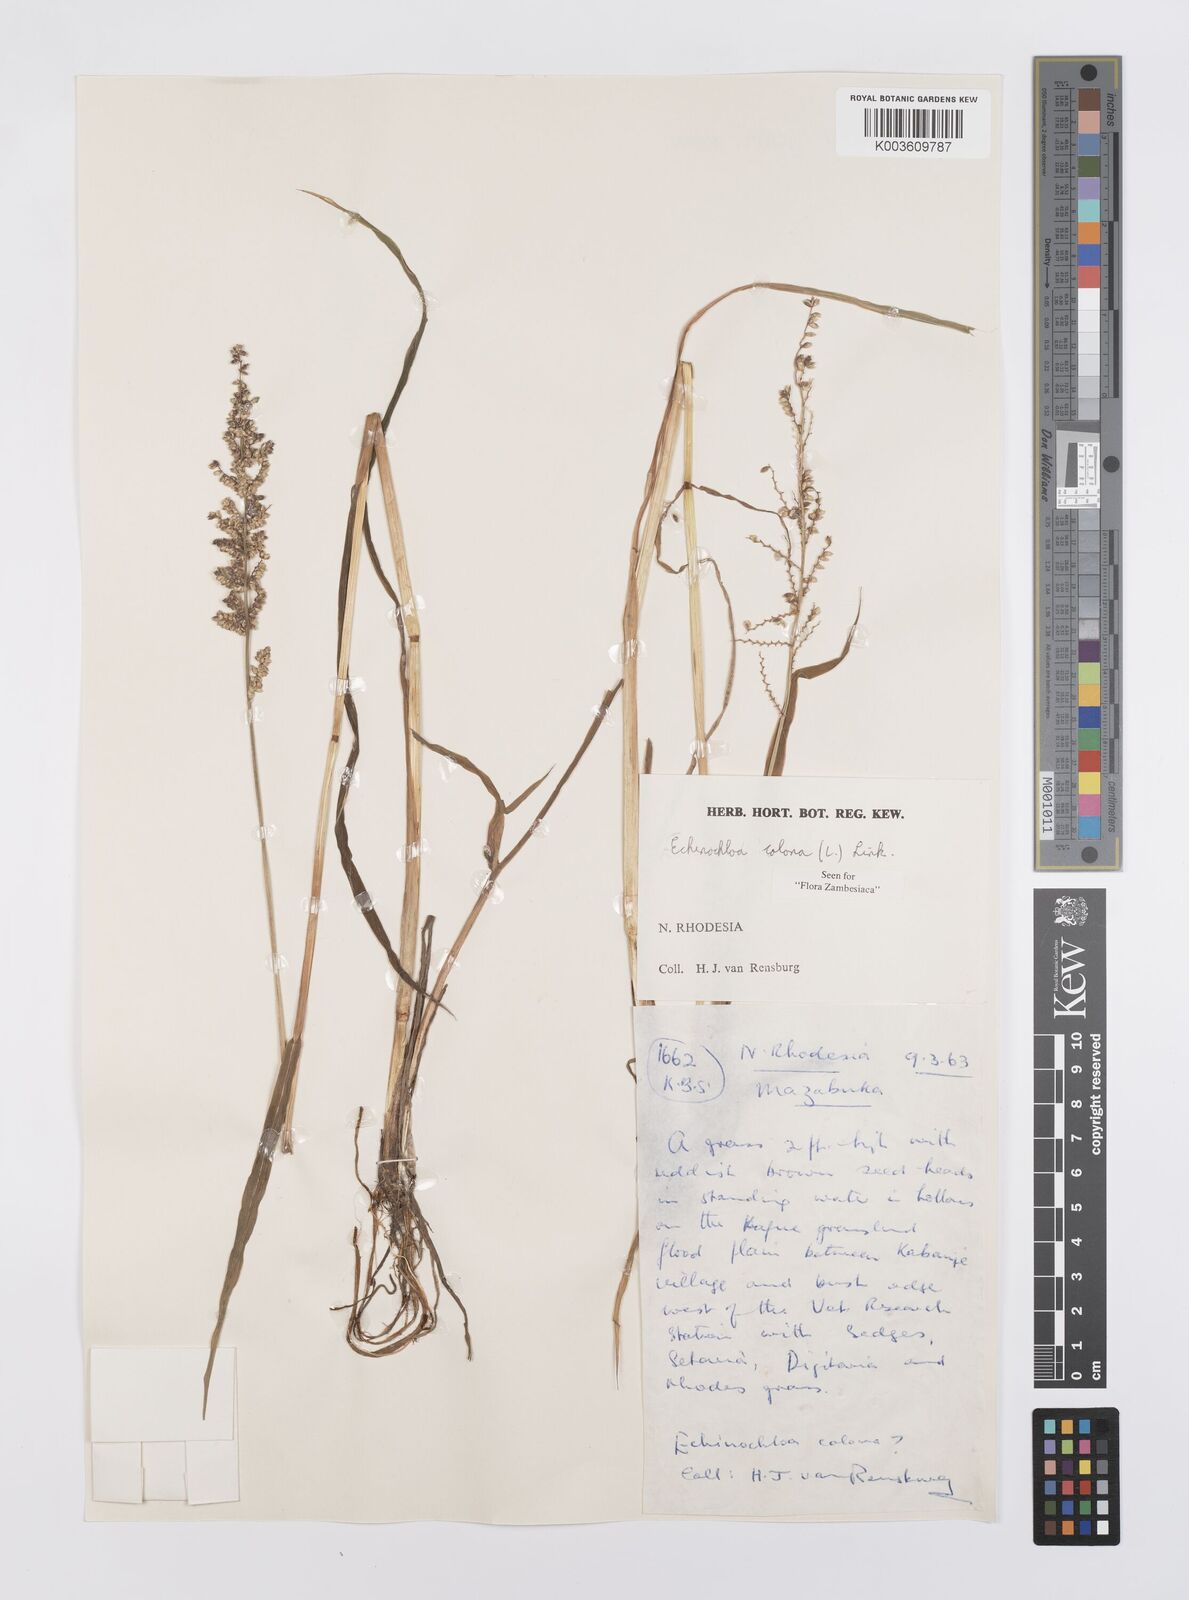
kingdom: Plantae
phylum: Tracheophyta
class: Liliopsida
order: Poales
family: Poaceae
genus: Echinochloa
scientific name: Echinochloa colonum
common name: Jungle rice
